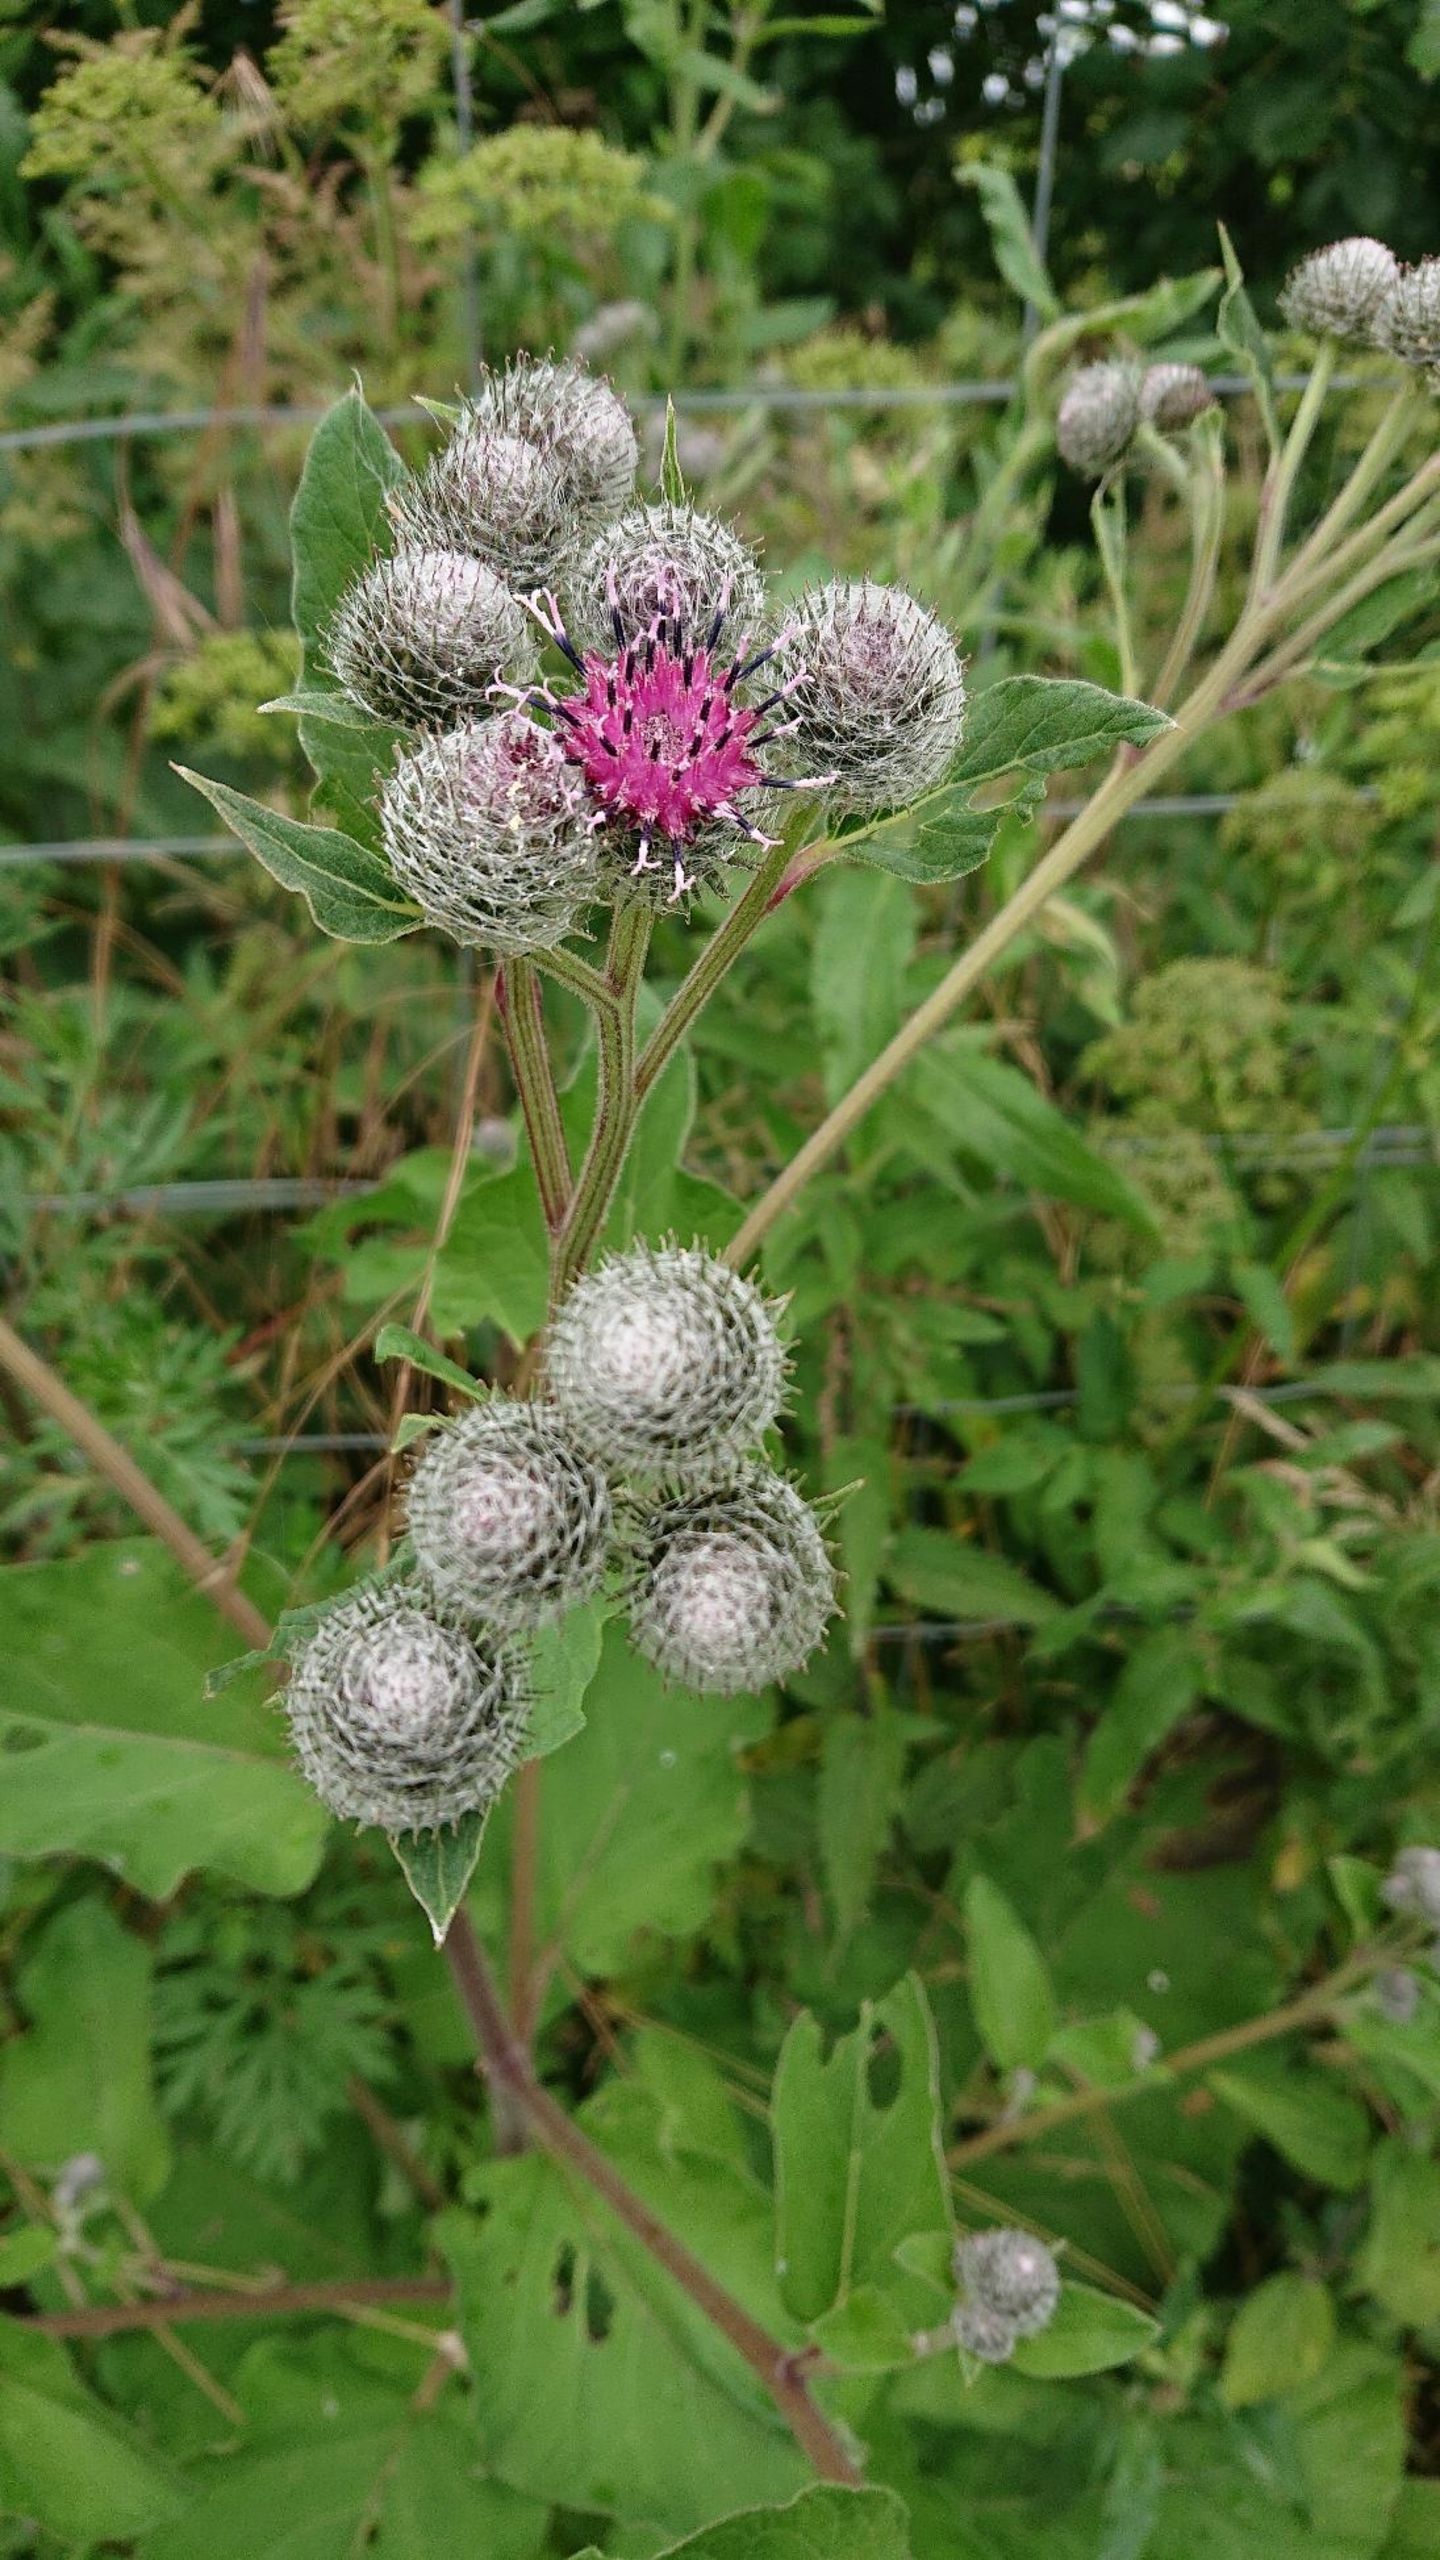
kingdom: Plantae
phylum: Tracheophyta
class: Magnoliopsida
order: Asterales
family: Asteraceae
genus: Arctium
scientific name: Arctium tomentosum
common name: Filtet burre
